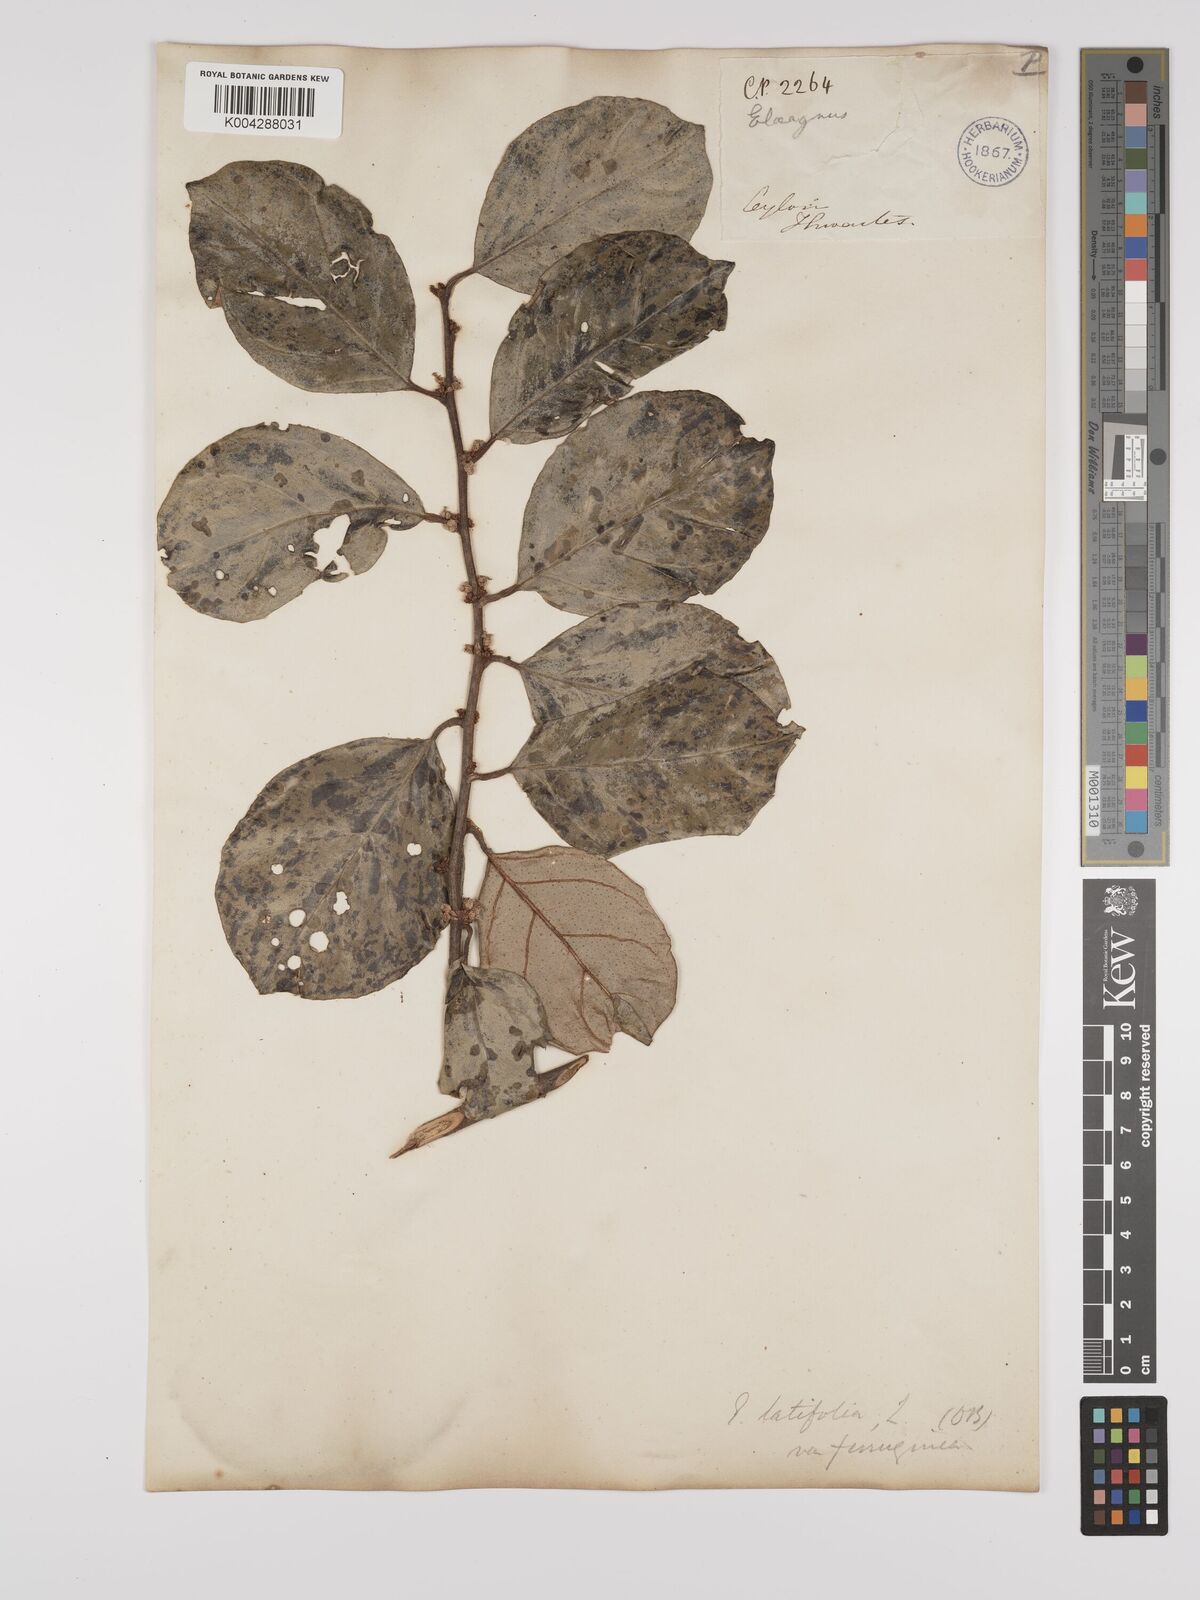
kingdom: Plantae
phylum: Tracheophyta
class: Magnoliopsida
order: Rosales
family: Elaeagnaceae
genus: Elaeagnus
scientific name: Elaeagnus latifolia
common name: Oleaster
